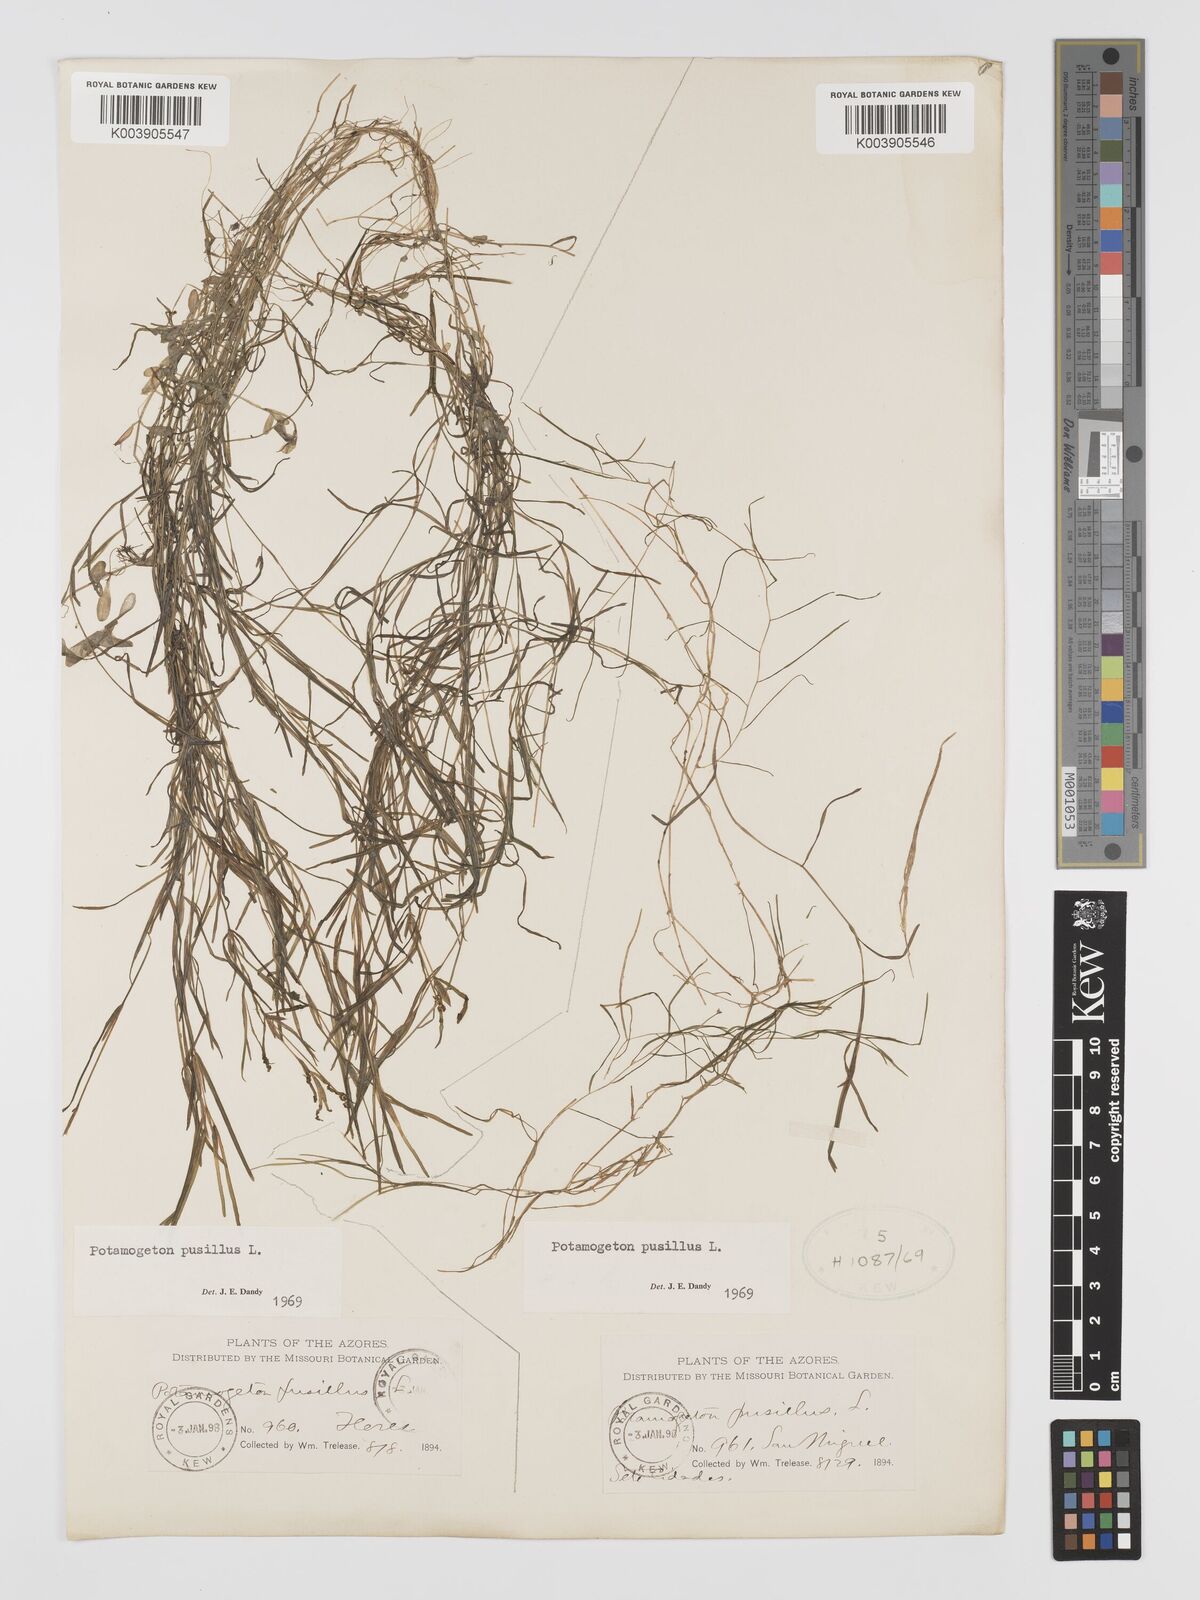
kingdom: Plantae
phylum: Tracheophyta
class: Liliopsida
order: Alismatales
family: Potamogetonaceae
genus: Potamogeton
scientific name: Potamogeton pusillus
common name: Lesser pondweed
